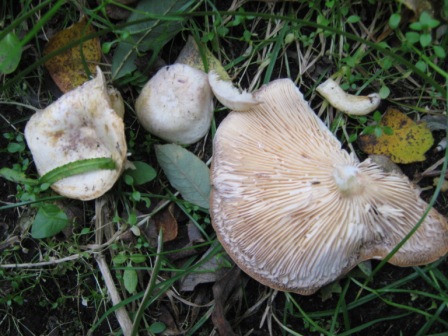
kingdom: Fungi
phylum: Basidiomycota
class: Agaricomycetes
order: Russulales
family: Russulaceae
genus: Lactarius
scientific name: Lactarius aspideus
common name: pile-mælkehat
